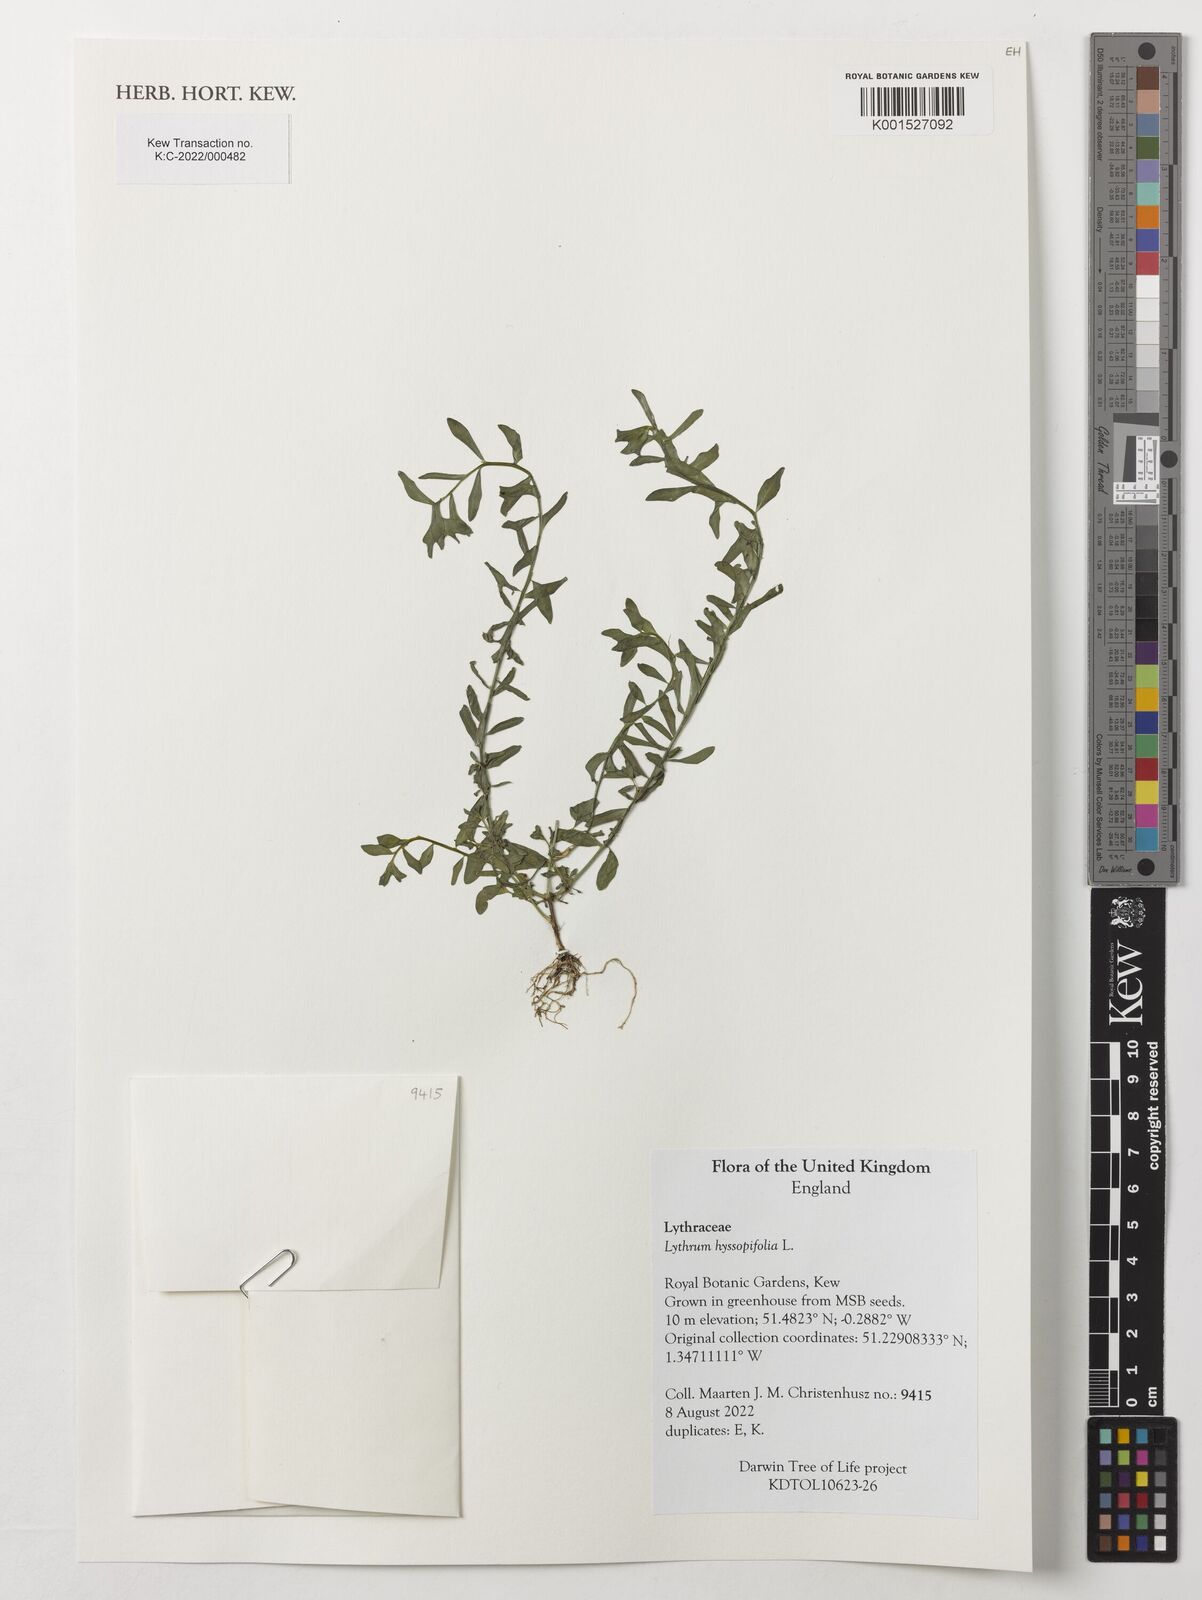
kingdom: Plantae
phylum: Tracheophyta
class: Magnoliopsida
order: Myrtales
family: Lythraceae
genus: Lythrum
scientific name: Lythrum hyssopifolia
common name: Grass-poly
